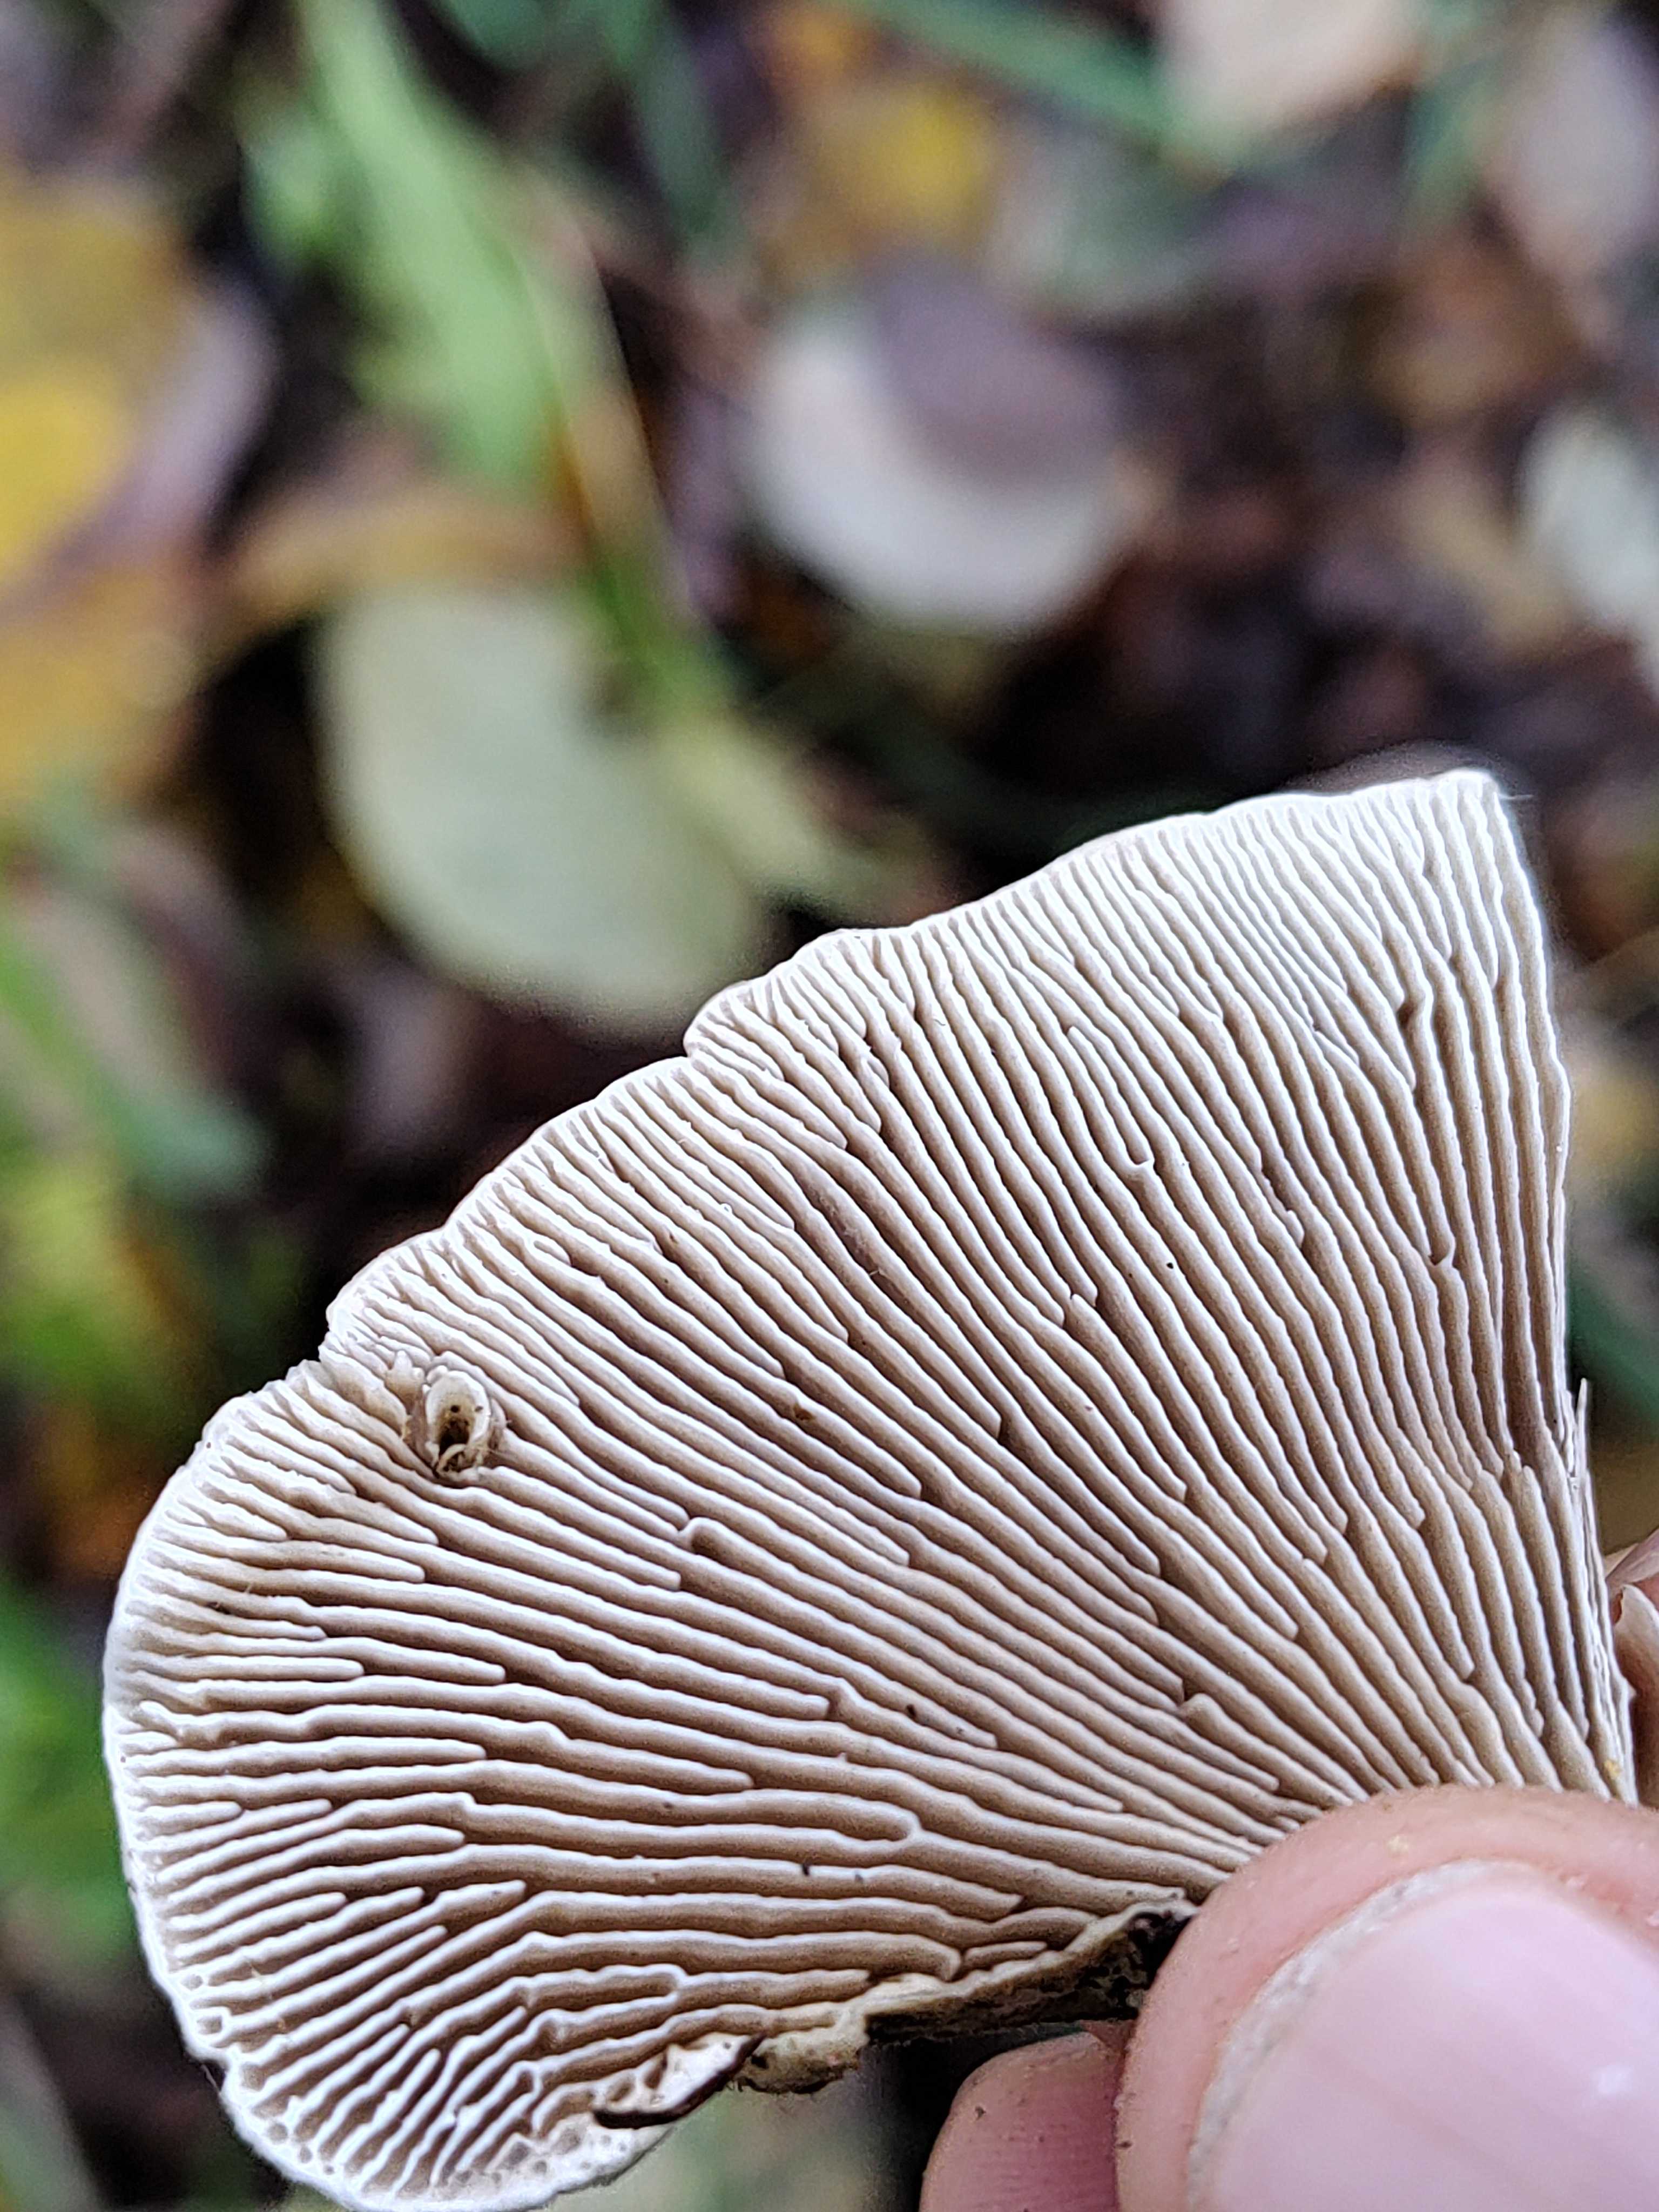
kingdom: Fungi
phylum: Basidiomycota
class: Agaricomycetes
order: Polyporales
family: Polyporaceae
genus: Lenzites
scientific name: Lenzites betulinus
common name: birke-læderporesvamp
